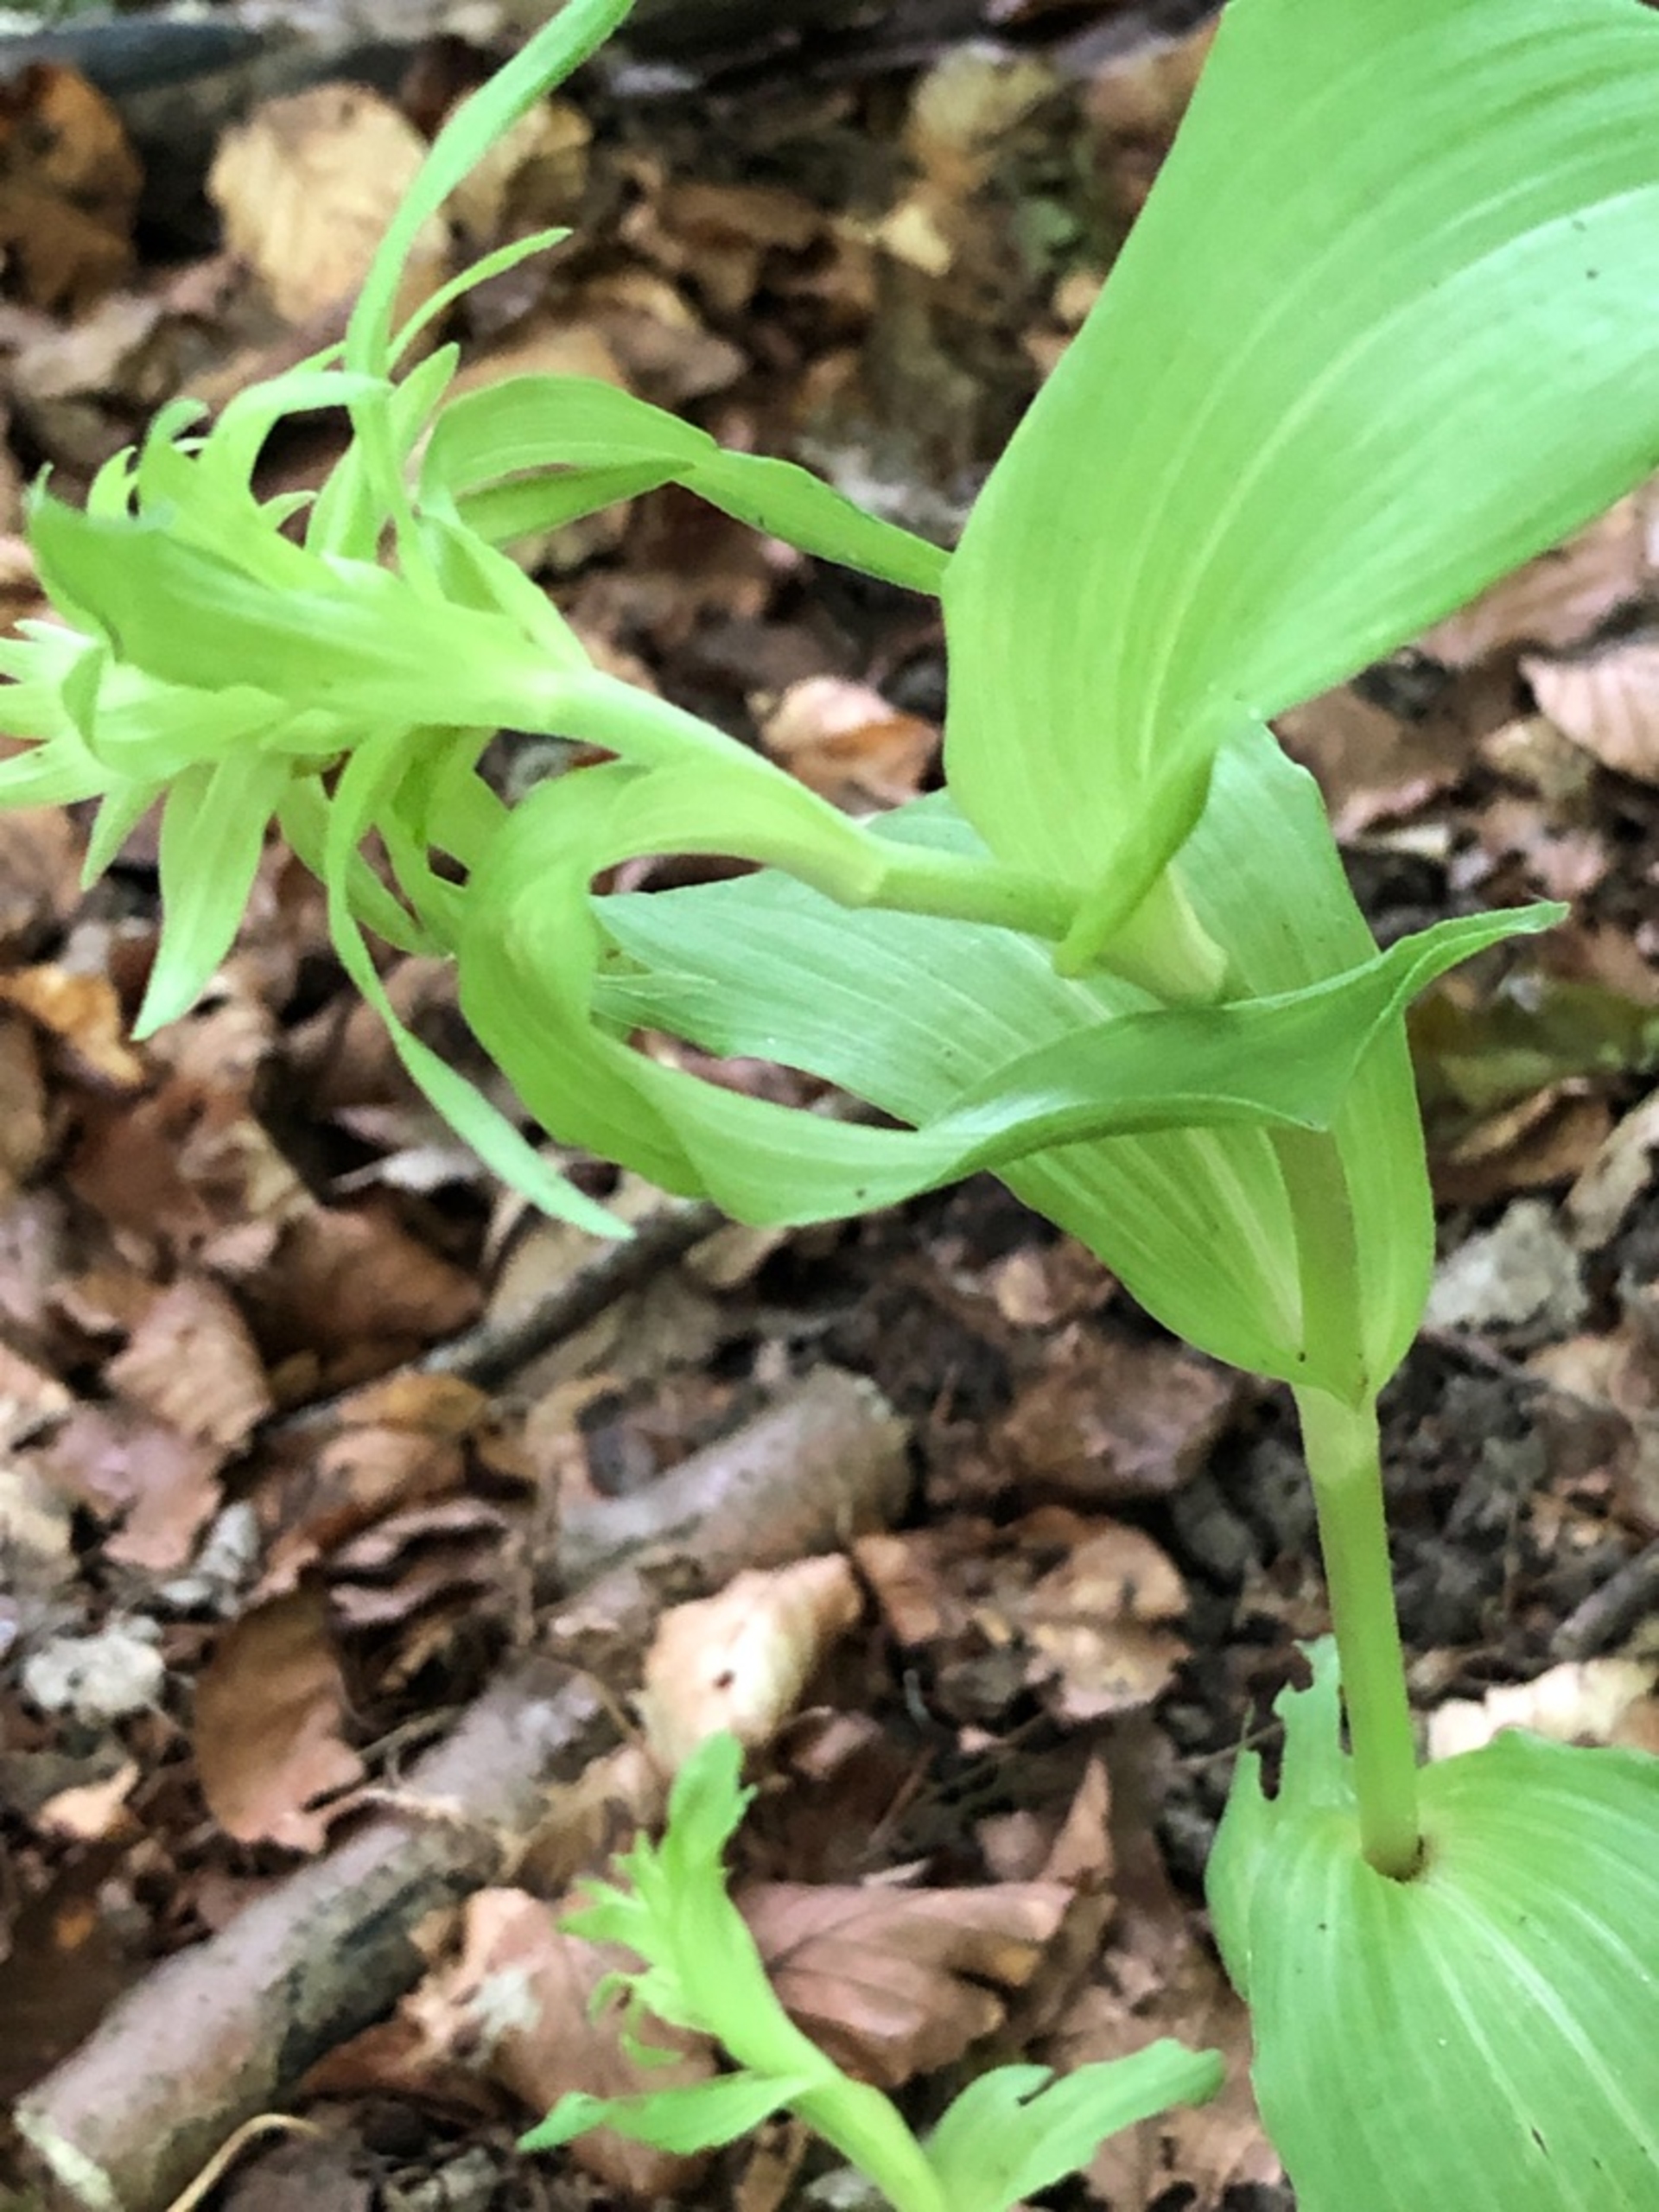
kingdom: Plantae
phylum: Tracheophyta
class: Liliopsida
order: Asparagales
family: Orchidaceae
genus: Epipactis
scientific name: Epipactis helleborine
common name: Skov-hullæbe
